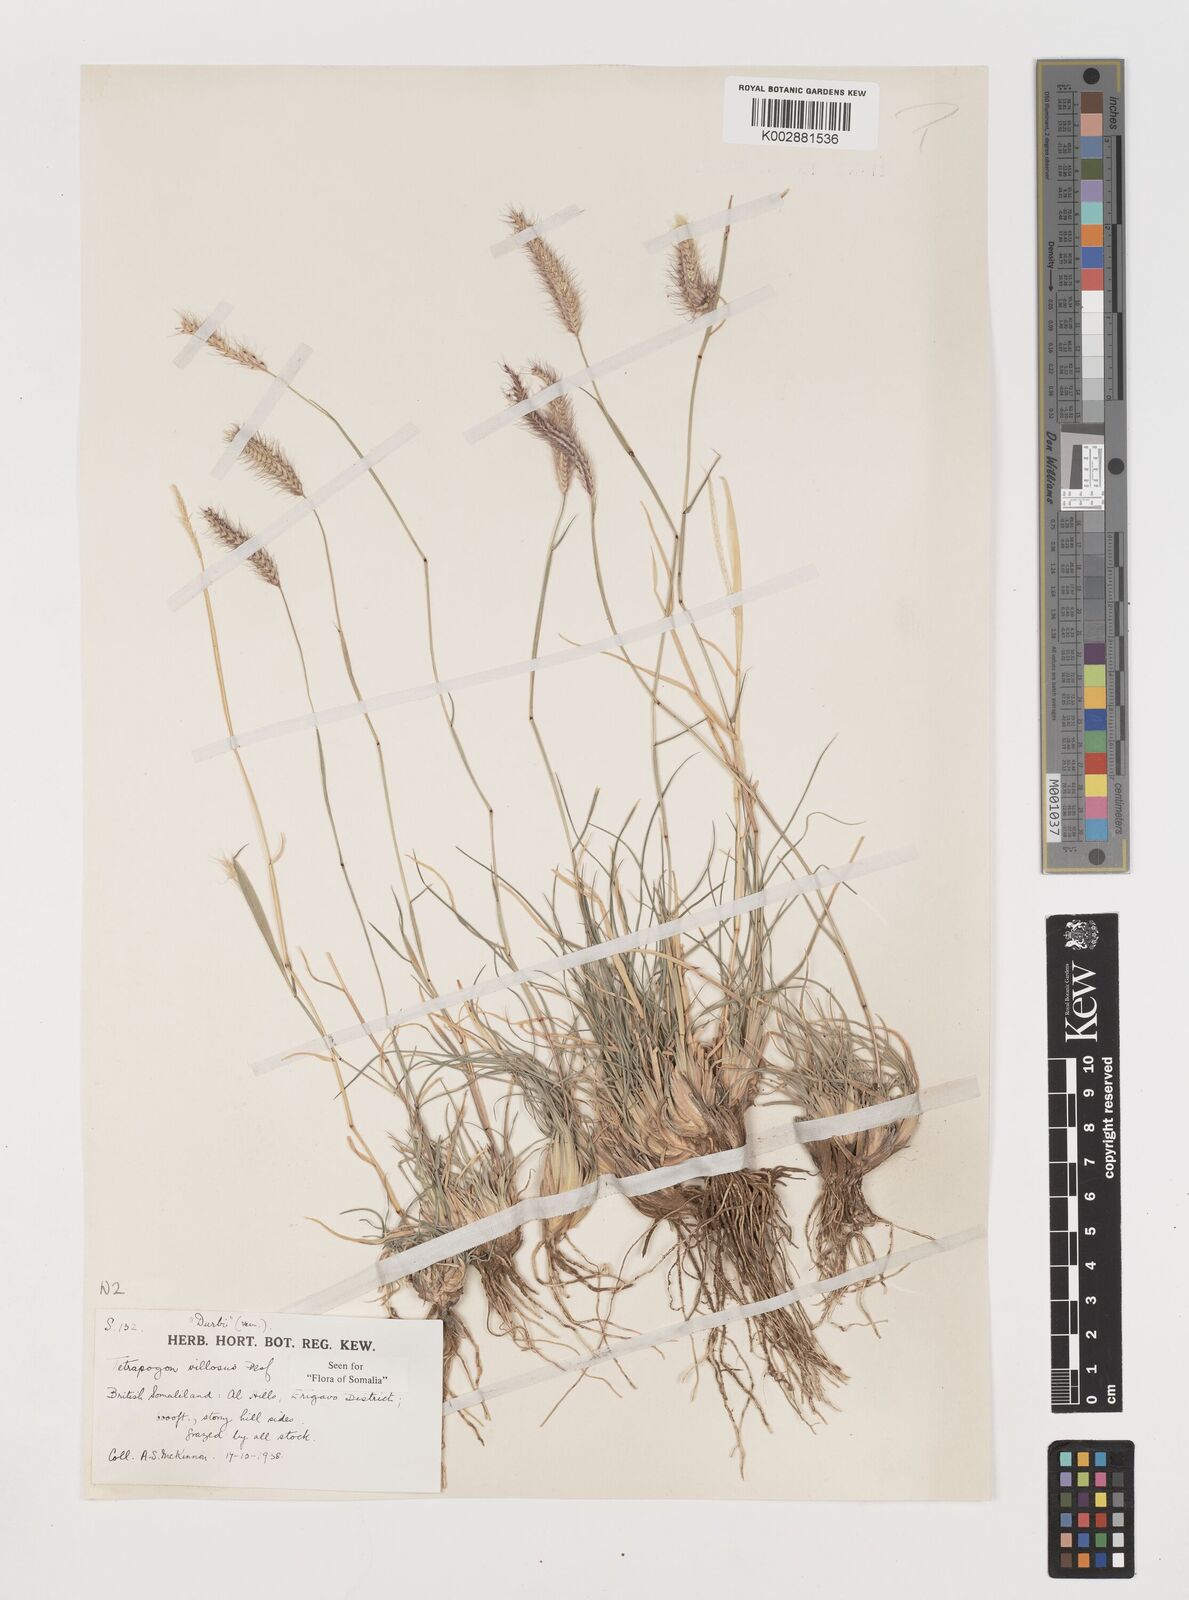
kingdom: Plantae
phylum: Tracheophyta
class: Liliopsida
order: Poales
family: Poaceae
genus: Tetrapogon
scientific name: Tetrapogon villosus
